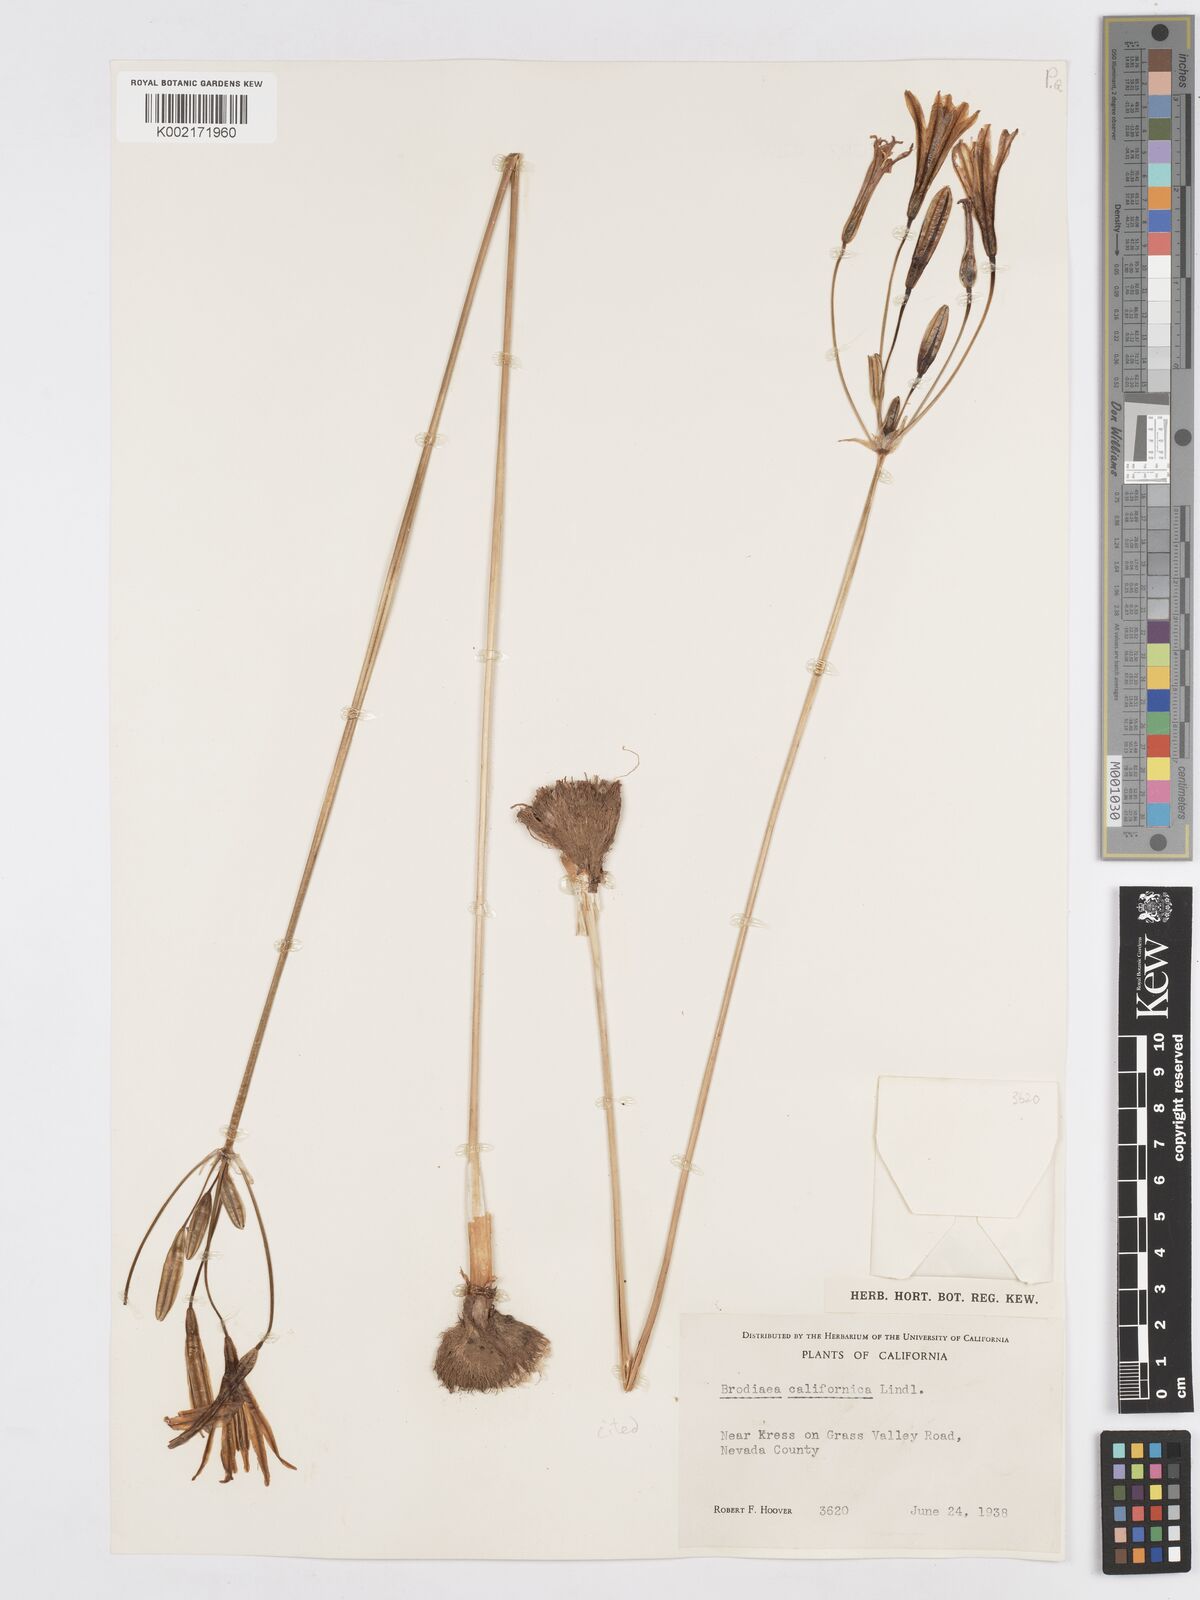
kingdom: Plantae
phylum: Tracheophyta
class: Liliopsida
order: Asparagales
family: Asparagaceae
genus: Brodiaea
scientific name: Brodiaea californica
